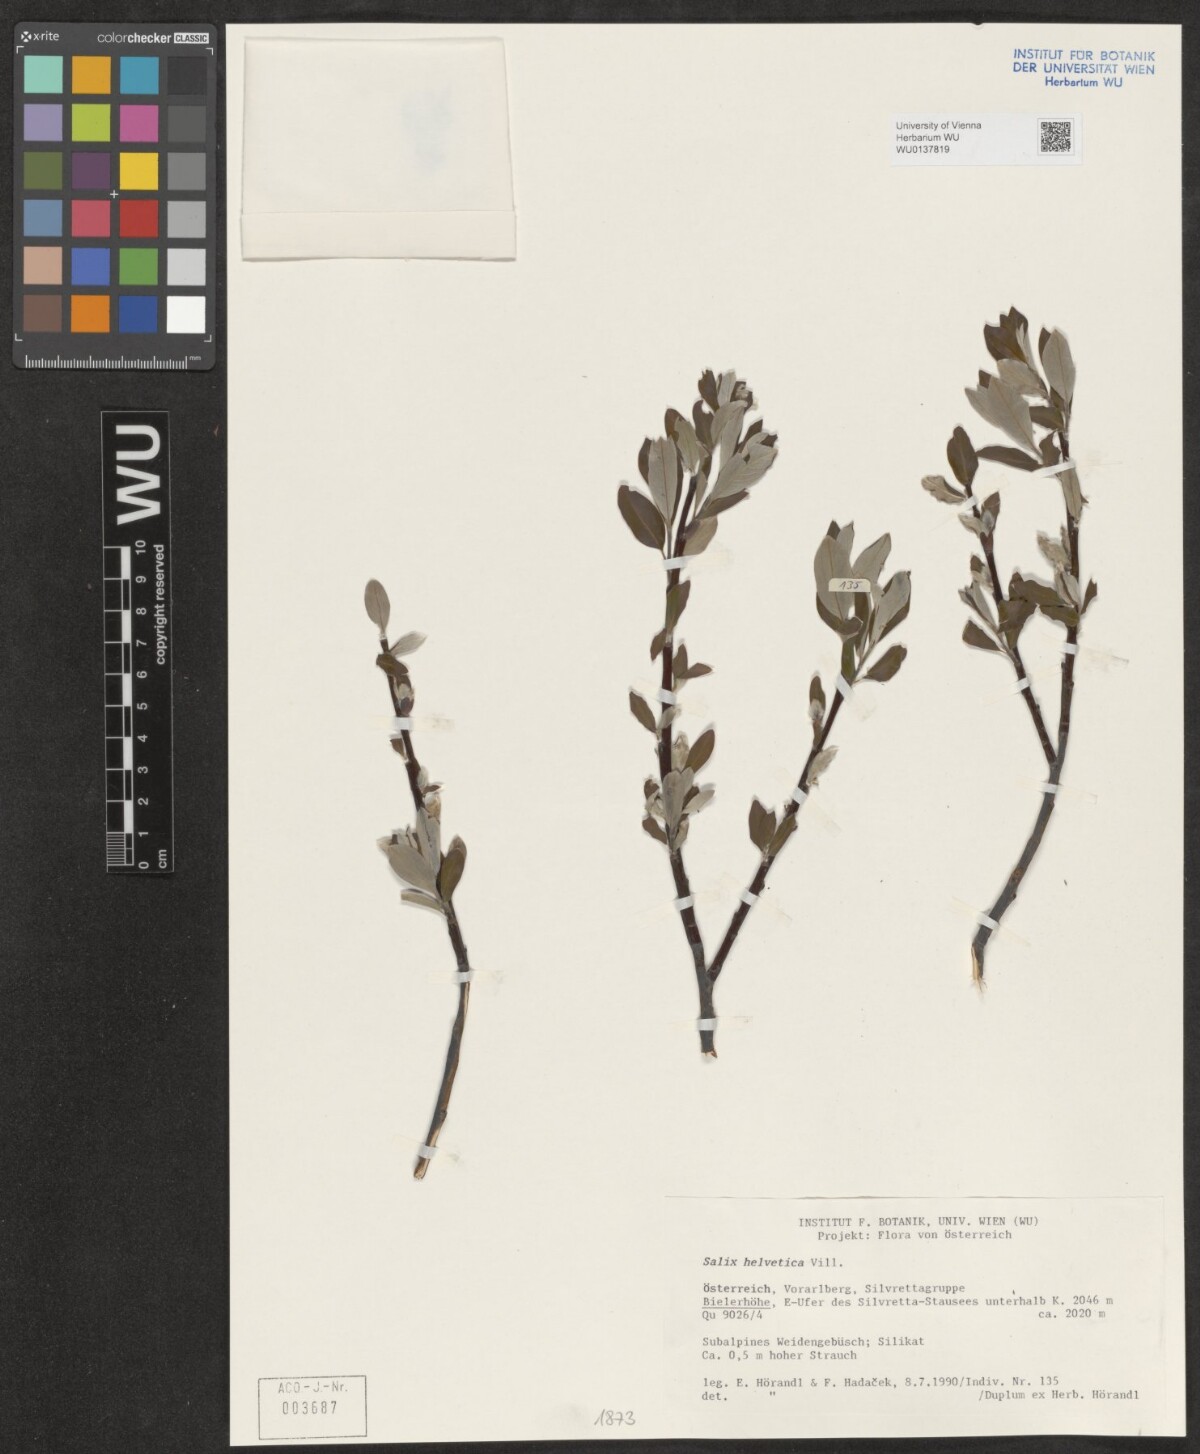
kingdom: Plantae
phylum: Tracheophyta
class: Magnoliopsida
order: Malpighiales
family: Salicaceae
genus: Salix
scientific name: Salix helvetica
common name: Swiss willow
